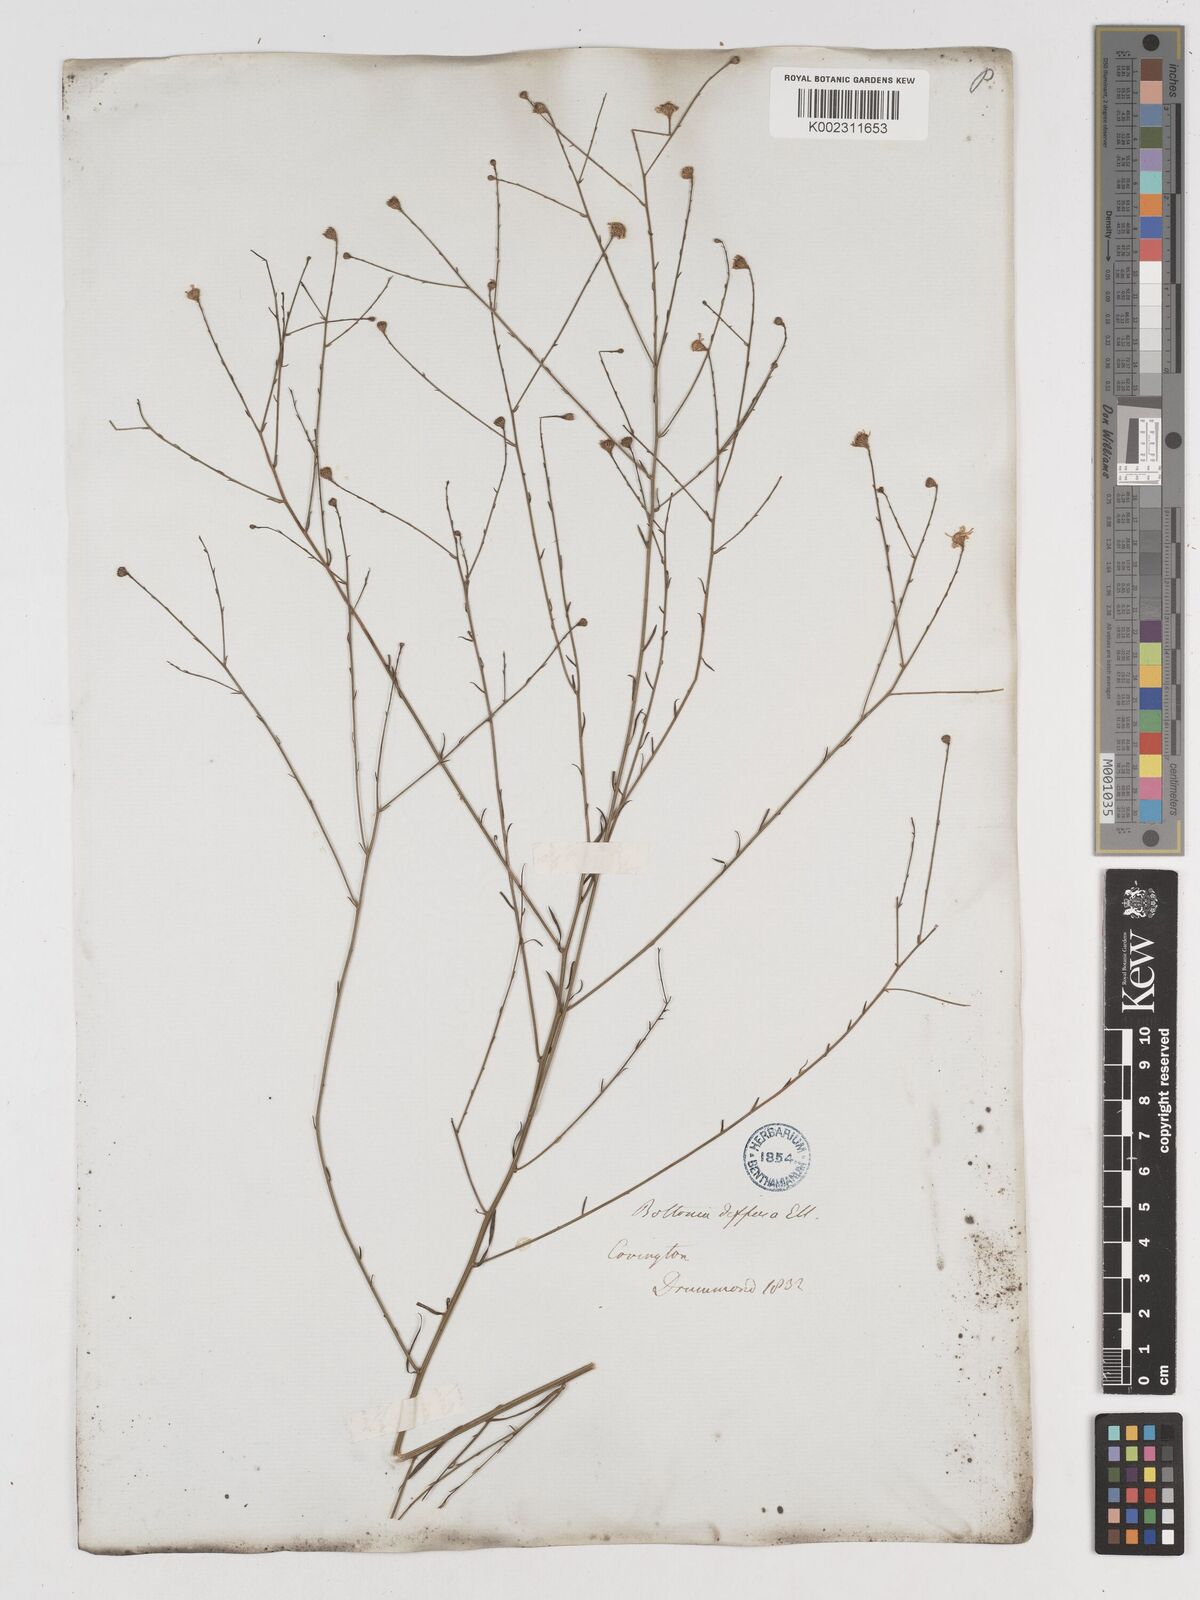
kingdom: Plantae
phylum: Tracheophyta
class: Magnoliopsida
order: Asterales
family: Asteraceae
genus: Boltonia
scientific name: Boltonia diffusa
